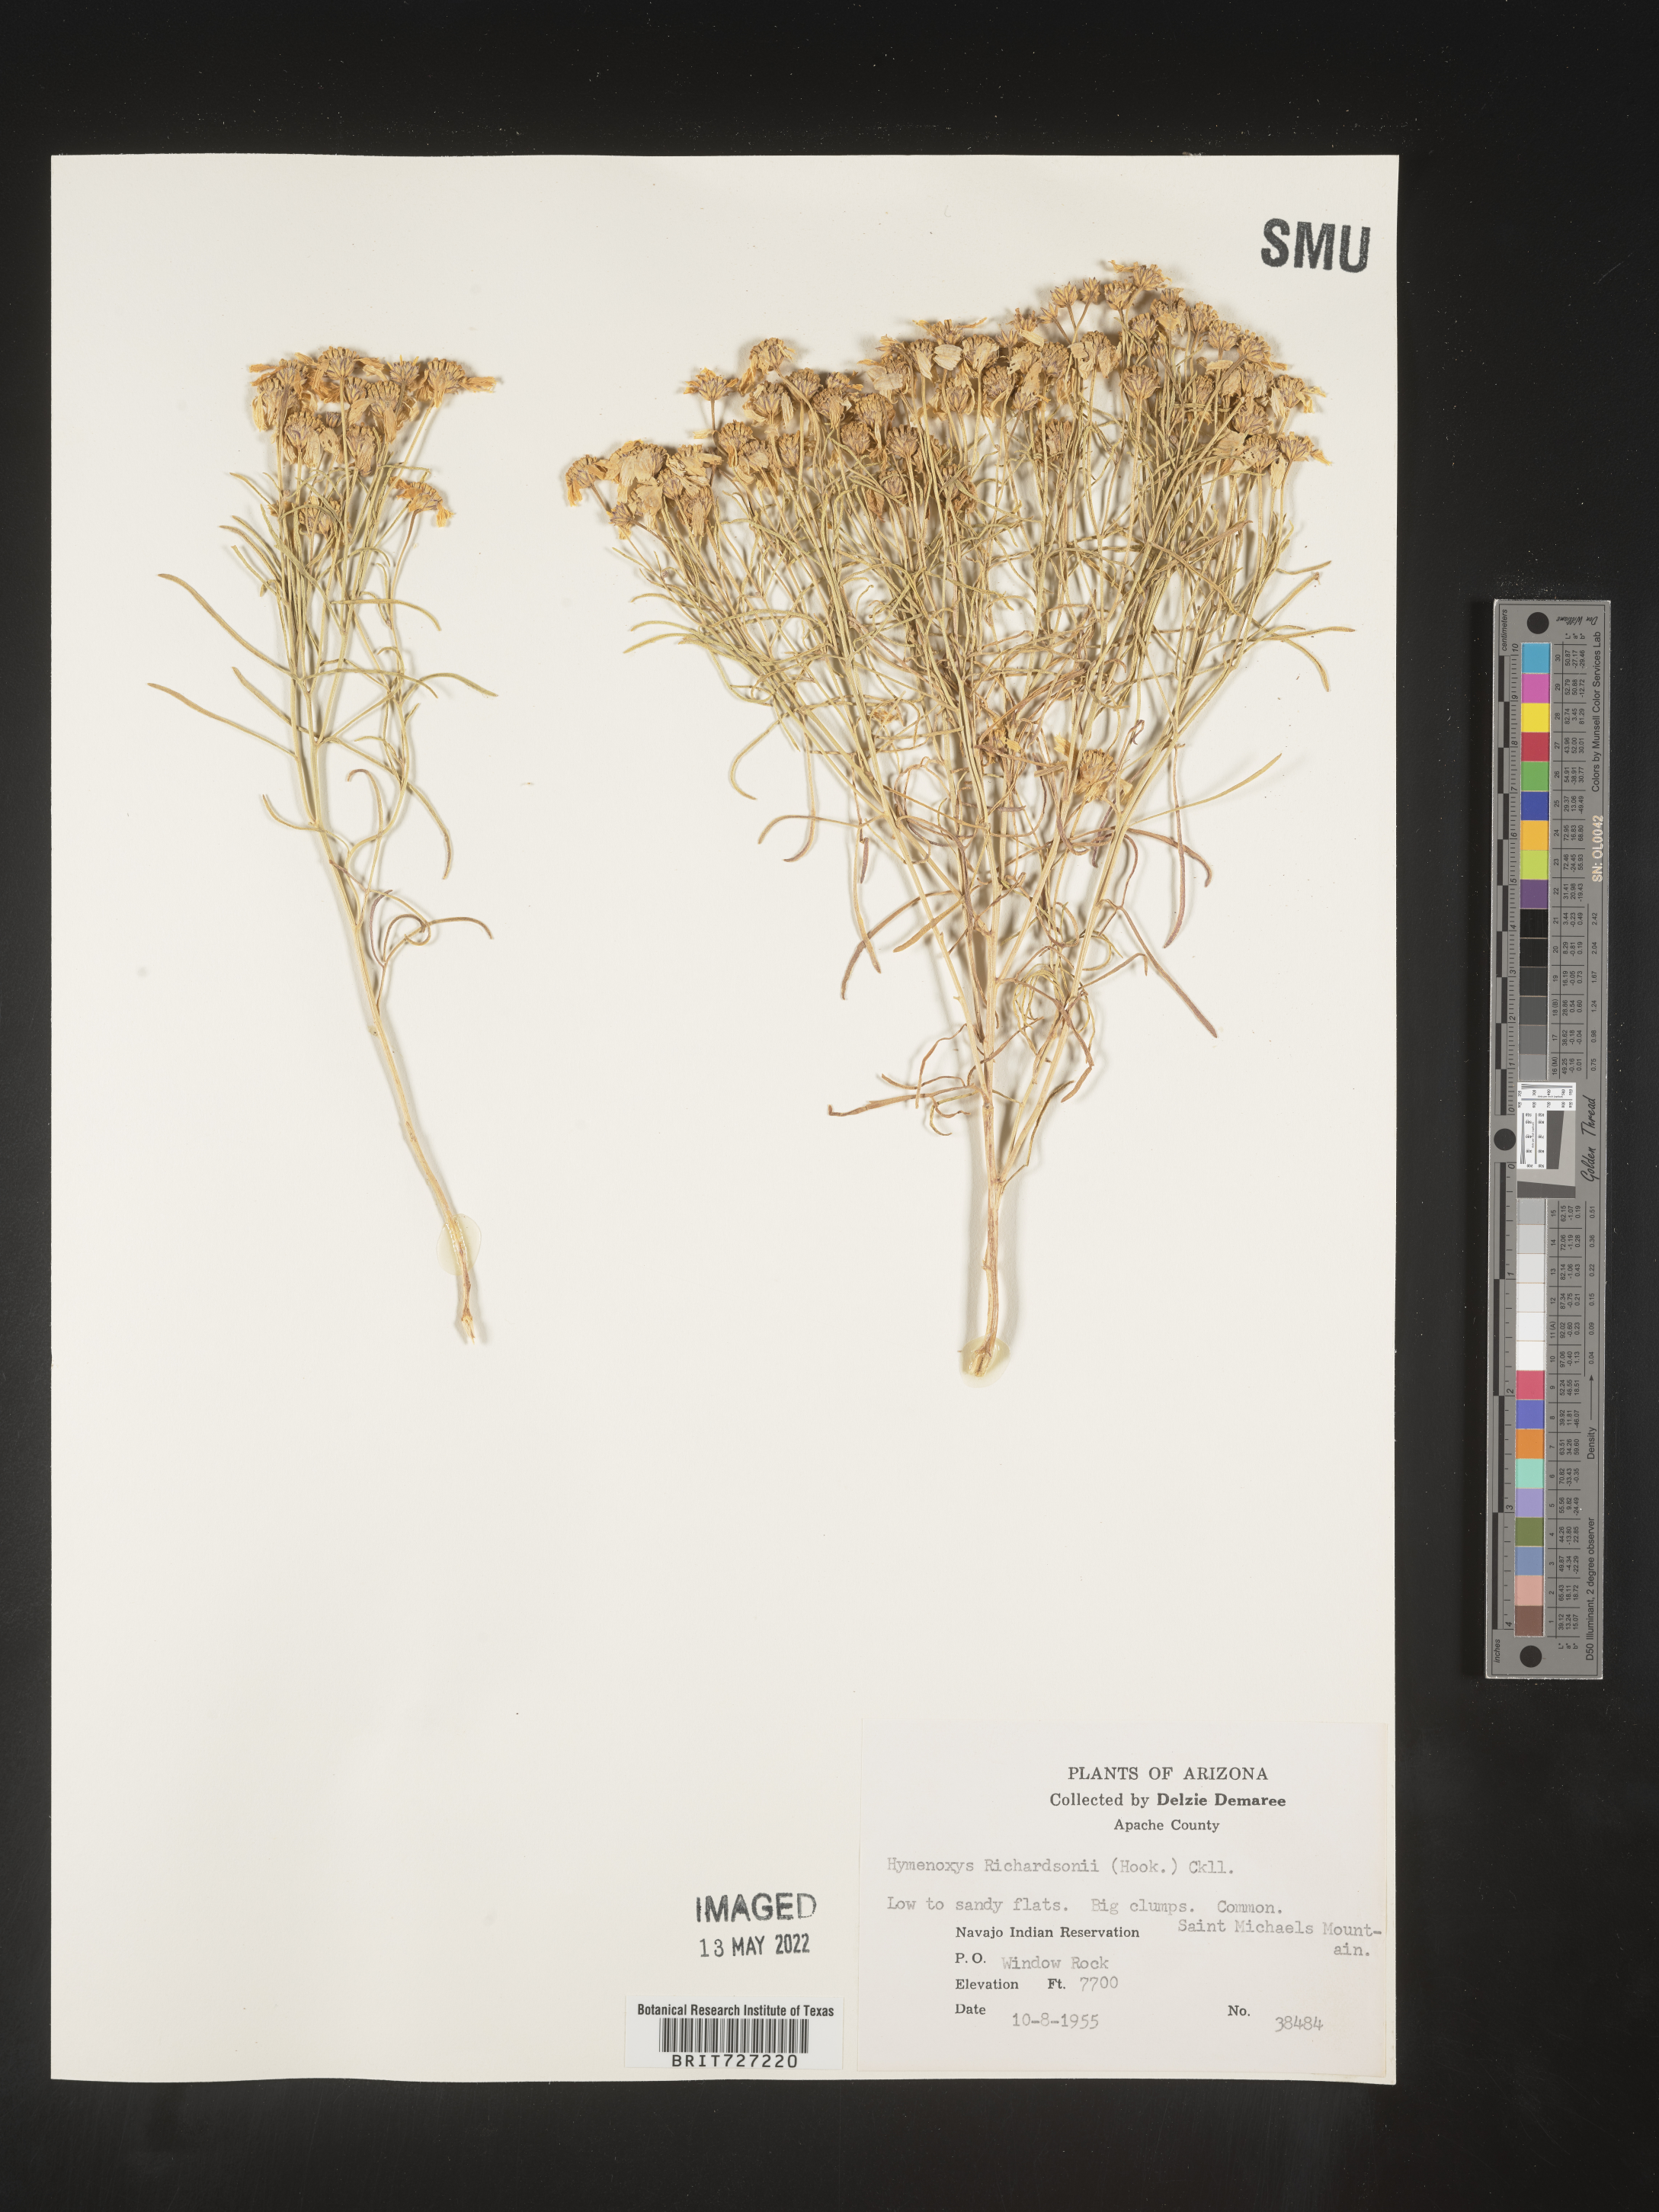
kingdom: Plantae
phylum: Tracheophyta
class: Magnoliopsida
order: Asterales
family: Asteraceae
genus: Hymenoxys
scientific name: Hymenoxys richardsonii
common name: Pingue rubberweed
